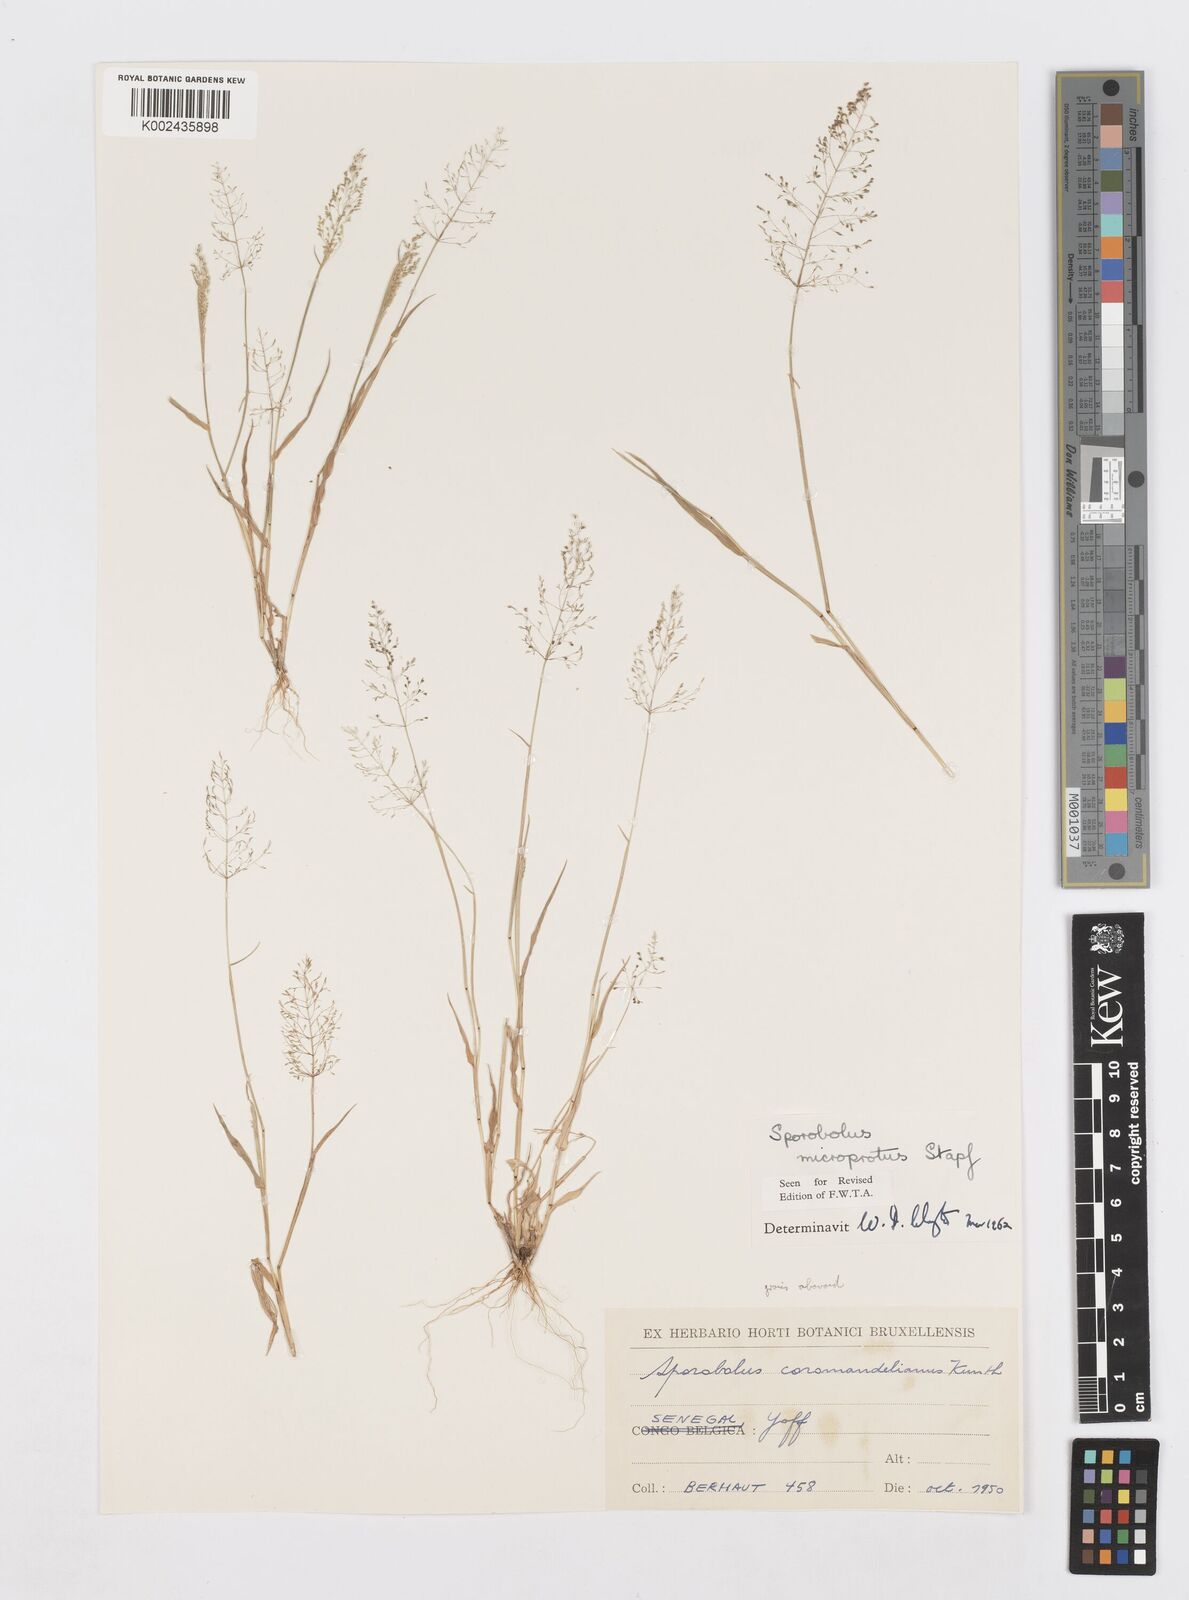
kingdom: Plantae
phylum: Tracheophyta
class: Liliopsida
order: Poales
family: Poaceae
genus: Sporobolus
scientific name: Sporobolus microprotus
